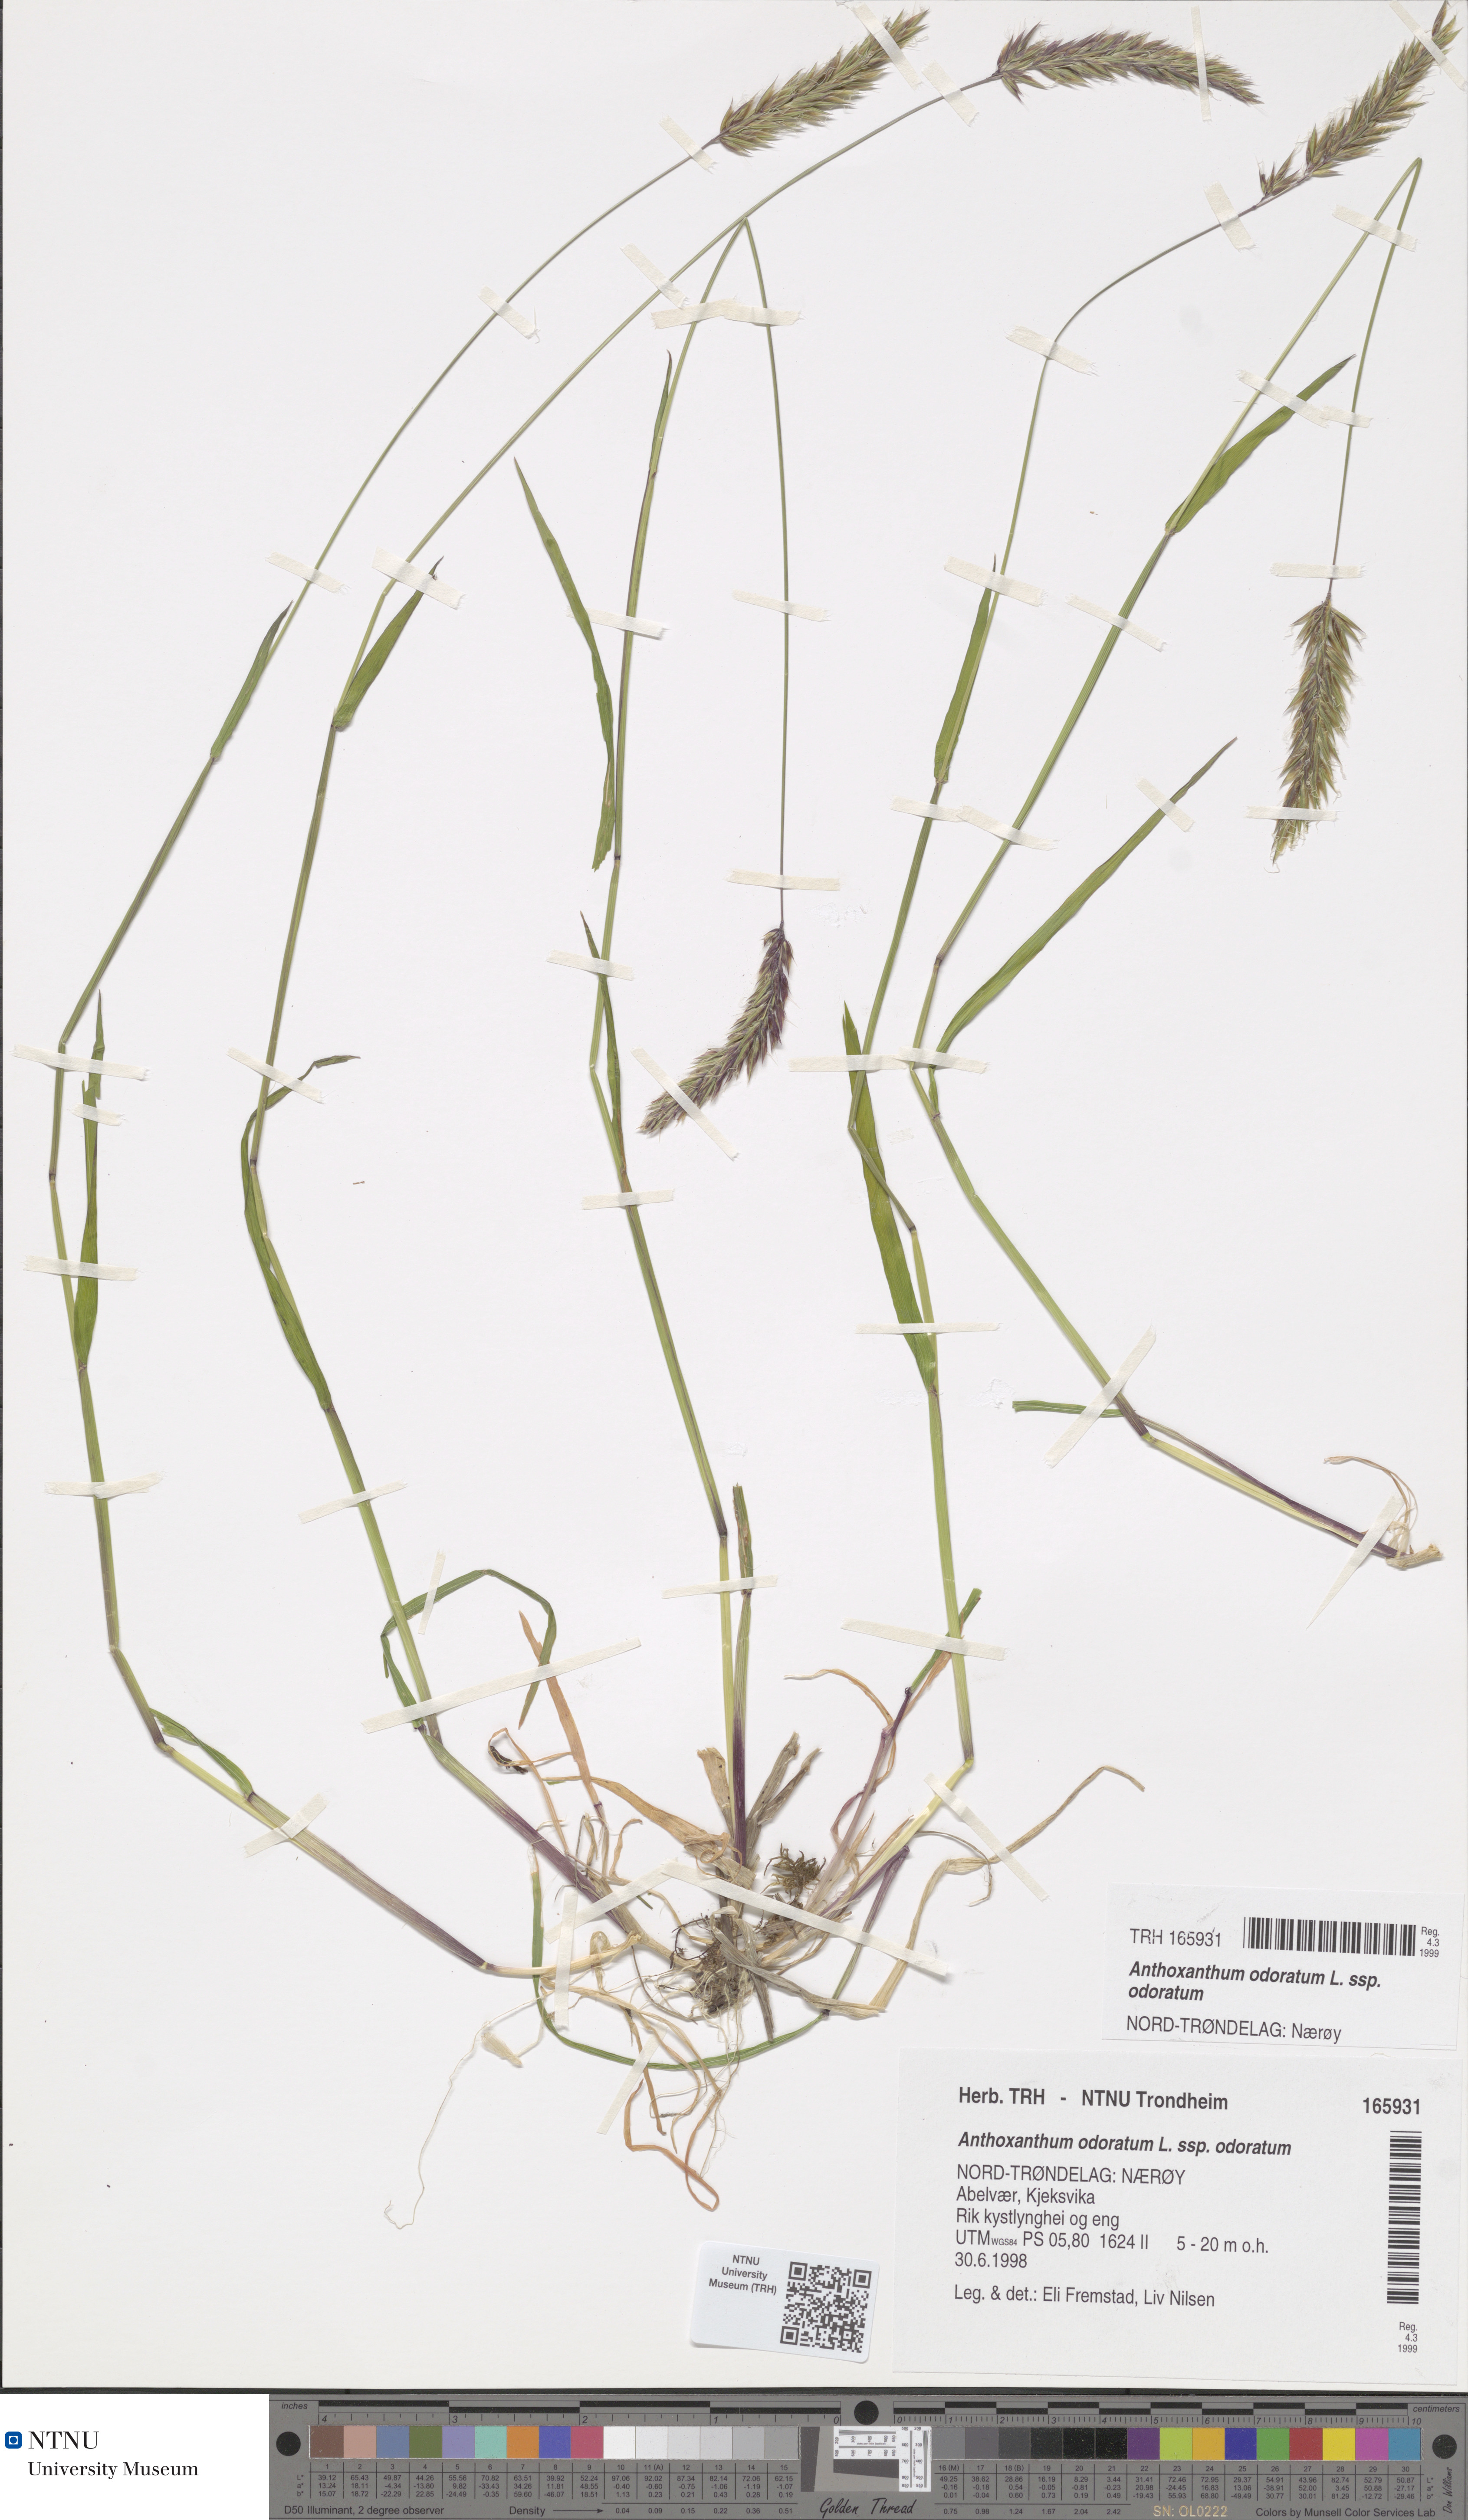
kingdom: Plantae
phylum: Tracheophyta
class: Liliopsida
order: Poales
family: Poaceae
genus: Anthoxanthum
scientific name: Anthoxanthum odoratum
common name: Sweet vernalgrass
